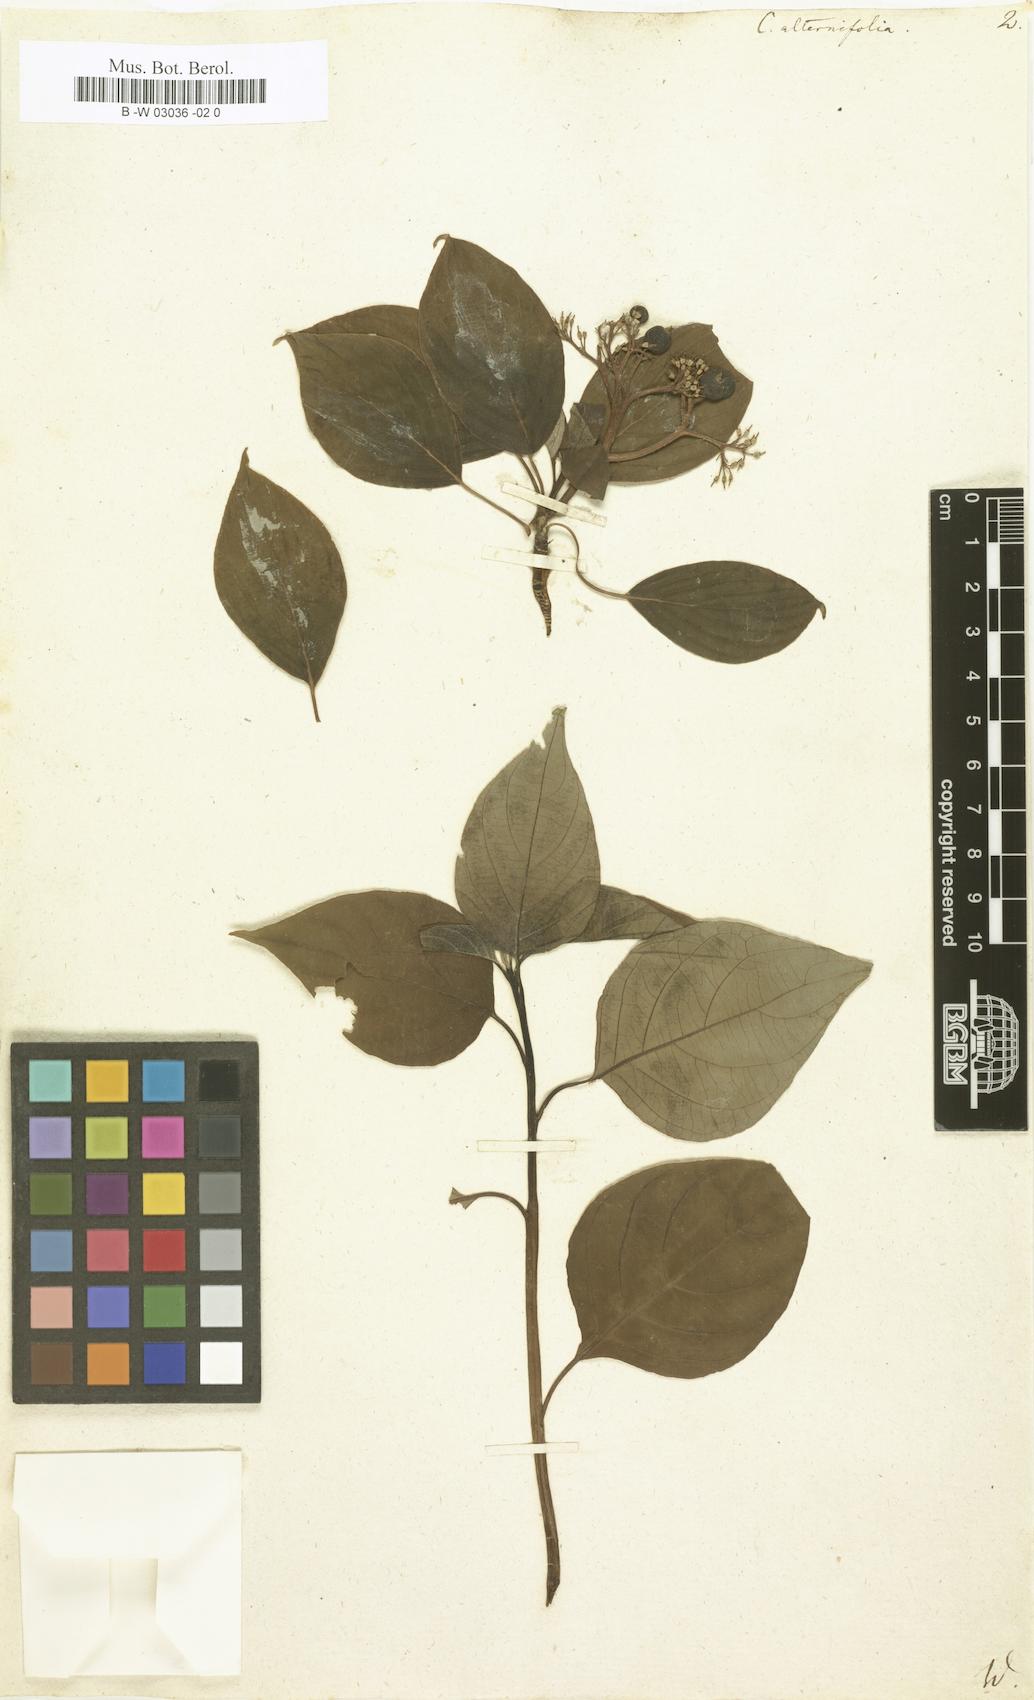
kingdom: Plantae
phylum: Tracheophyta
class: Magnoliopsida
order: Cornales
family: Cornaceae
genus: Cornus
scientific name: Cornus alternifolia
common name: Pagoda dogwood
